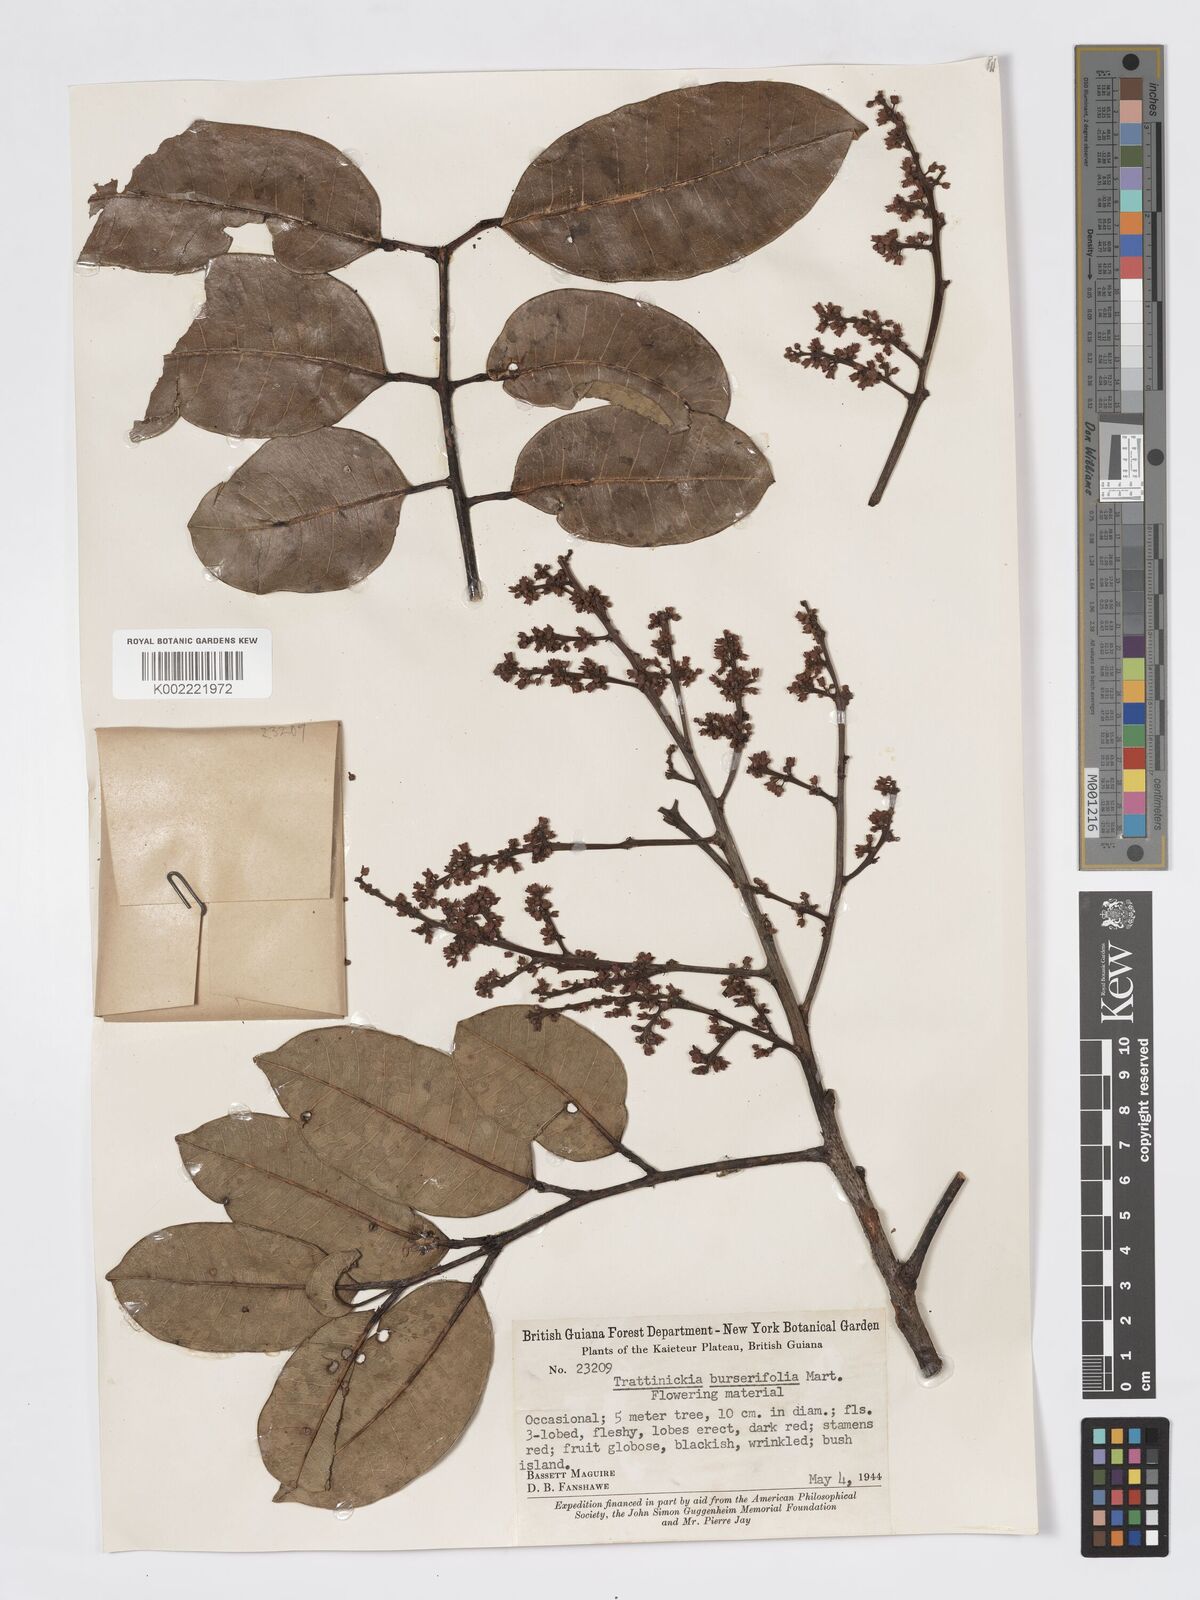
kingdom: Plantae
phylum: Tracheophyta
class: Magnoliopsida
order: Sapindales
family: Burseraceae
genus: Trattinnickia
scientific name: Trattinnickia burserifolia
